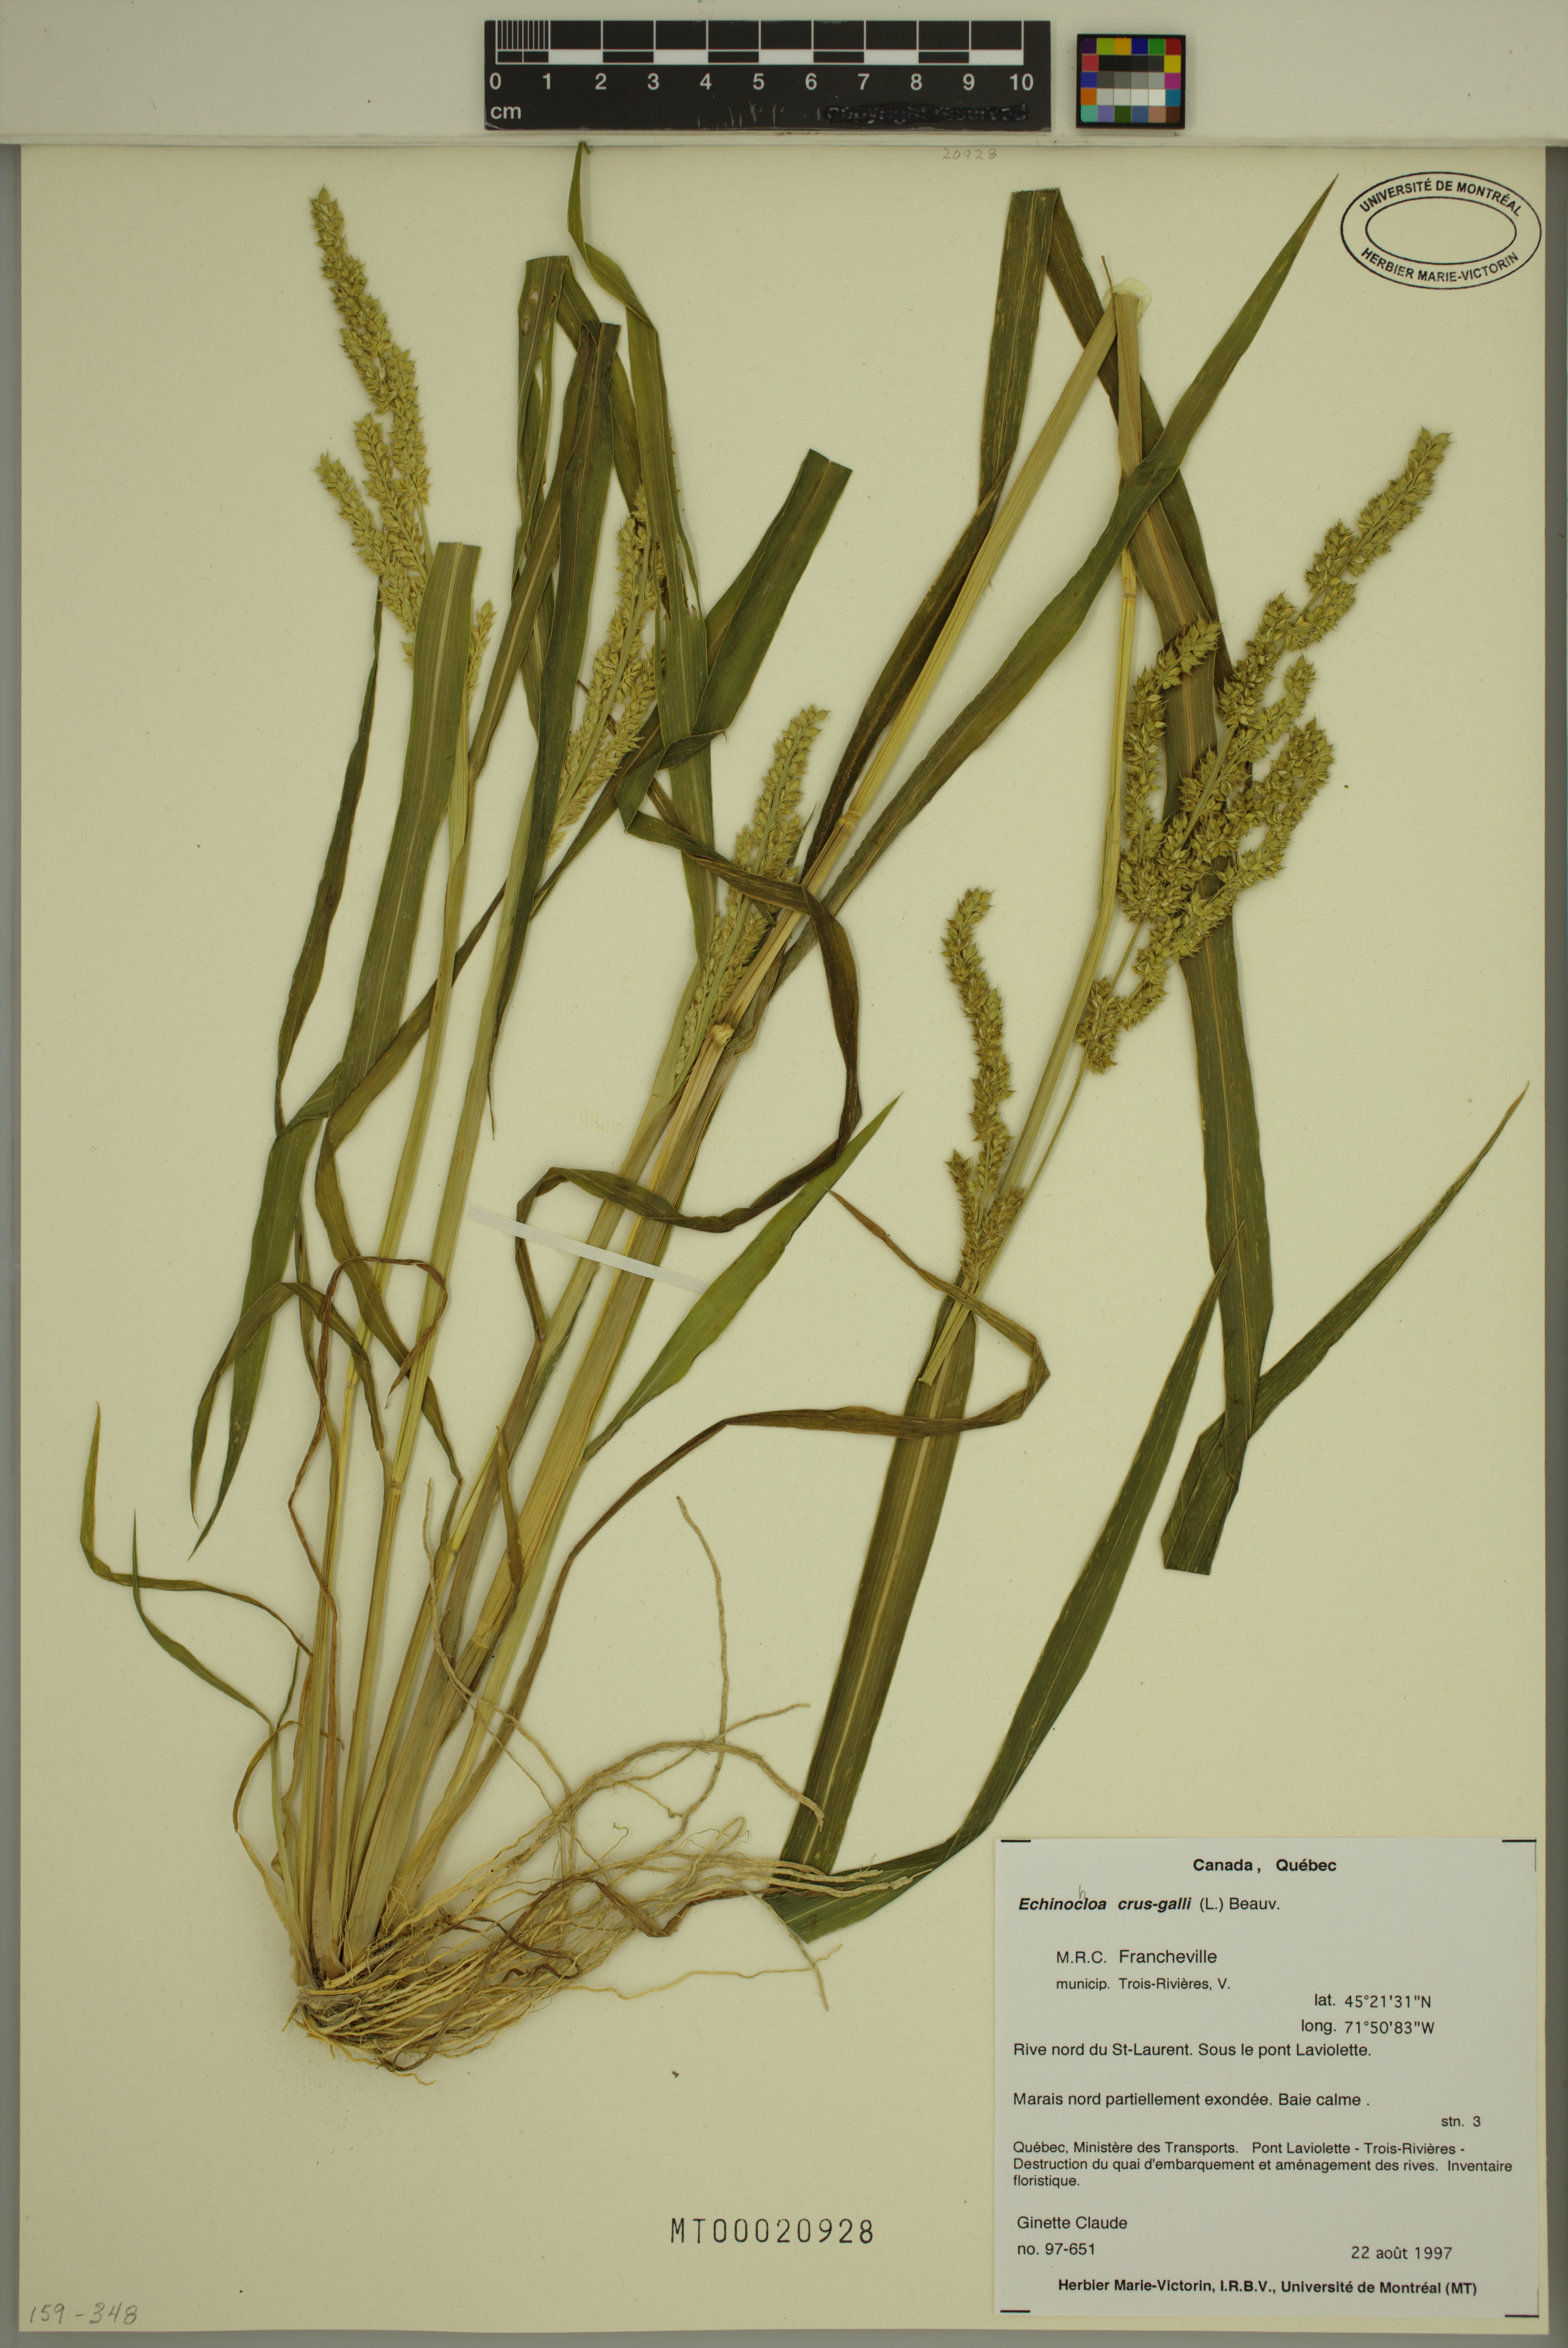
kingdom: Plantae
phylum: Tracheophyta
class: Liliopsida
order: Poales
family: Poaceae
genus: Echinochloa
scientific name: Echinochloa crus-galli
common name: Cockspur
